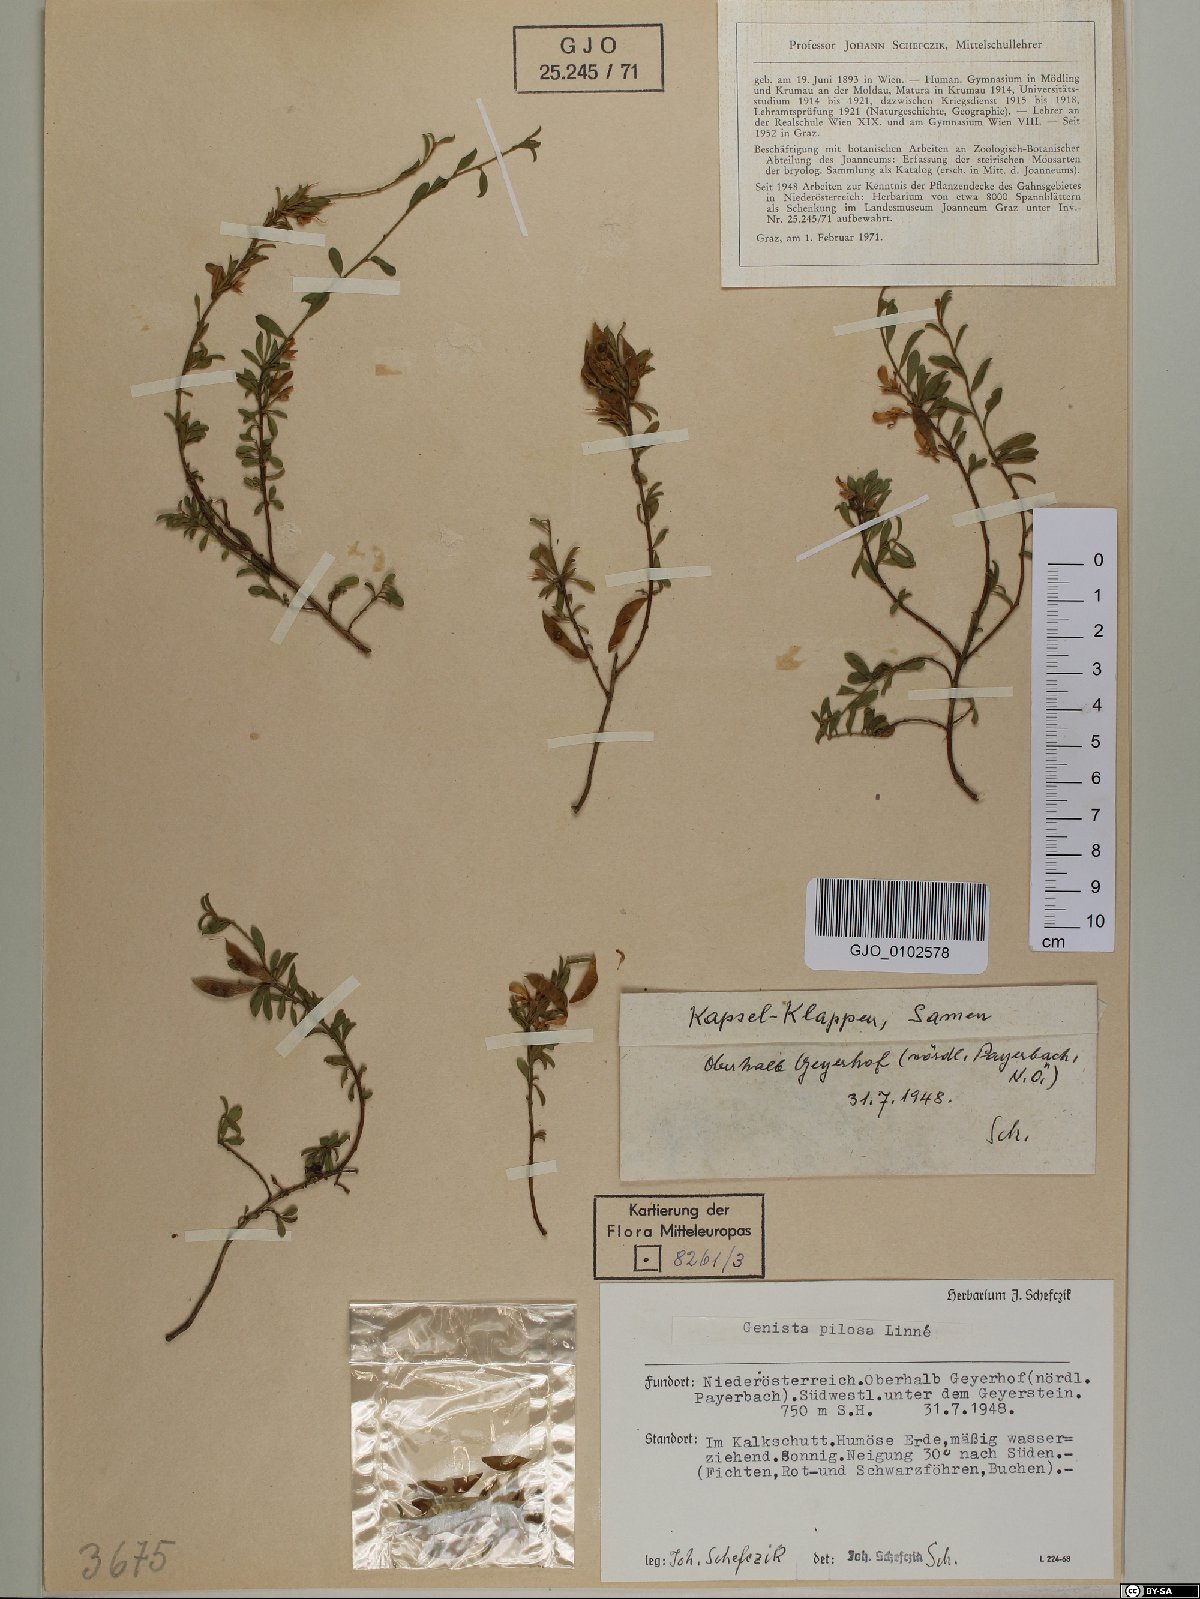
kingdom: Plantae
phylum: Tracheophyta
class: Magnoliopsida
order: Fabales
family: Fabaceae
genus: Genista
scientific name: Genista pilosa
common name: Hairy greenweed
